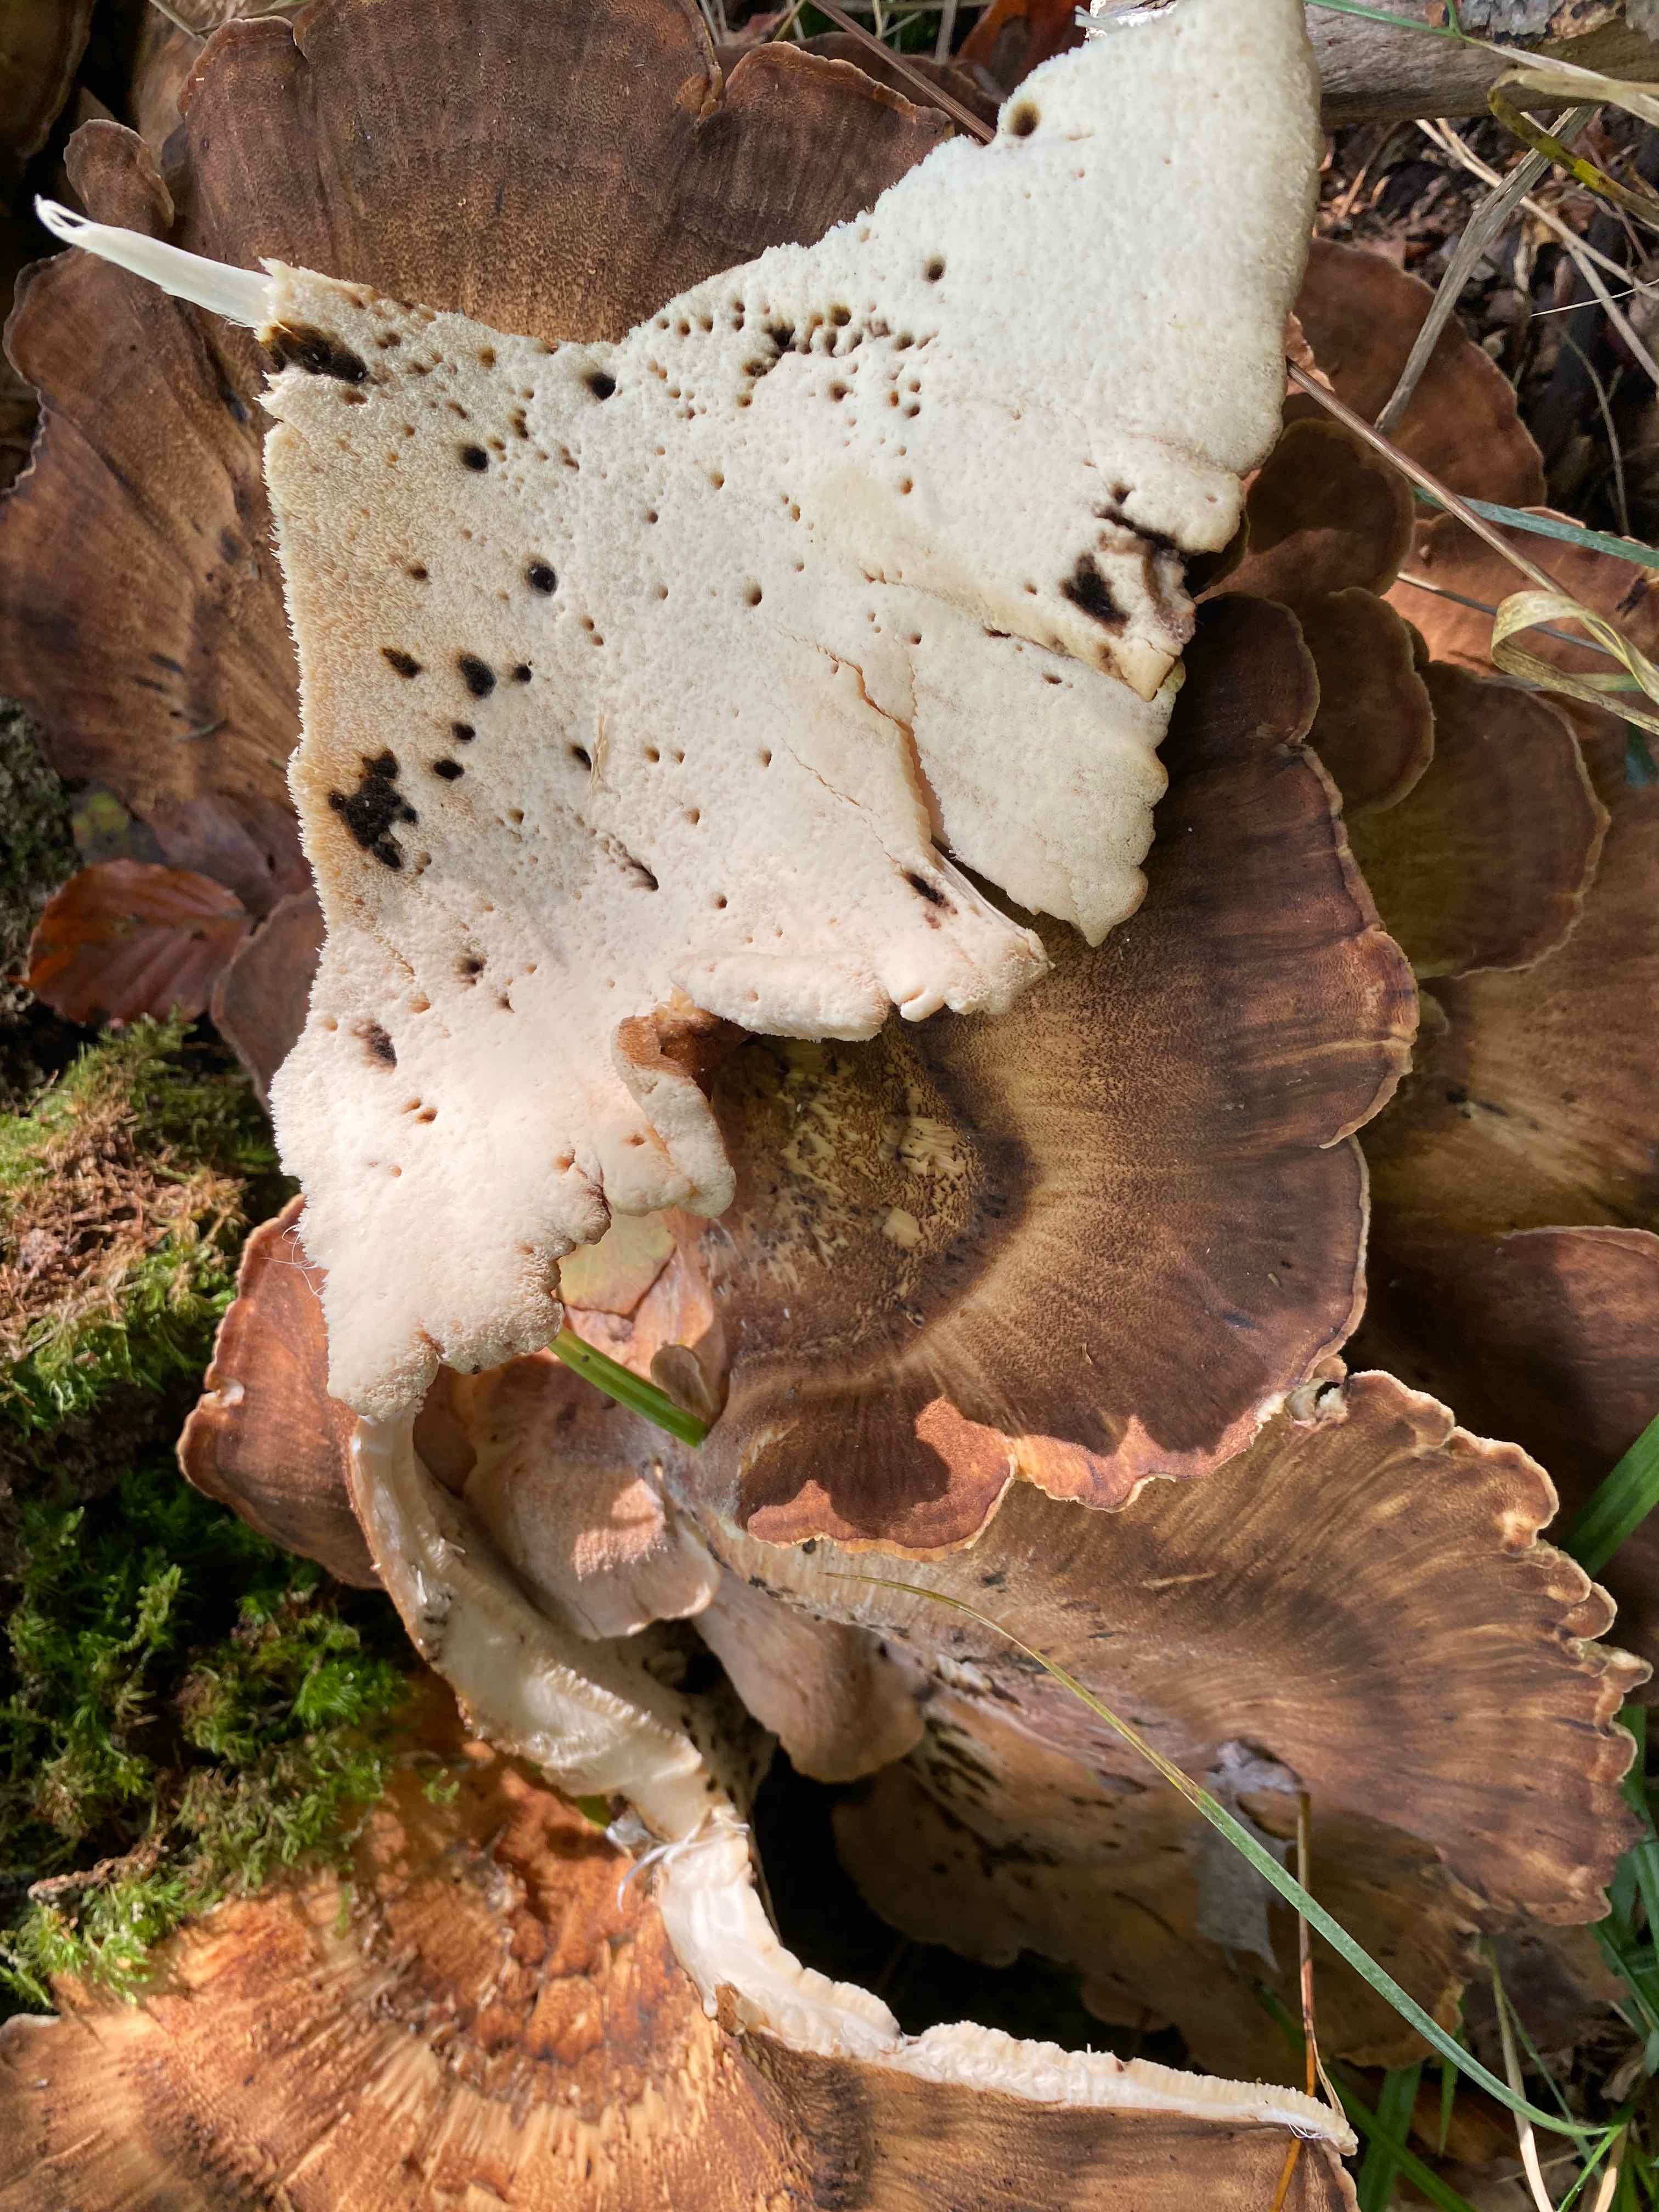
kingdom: Fungi
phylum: Basidiomycota
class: Agaricomycetes
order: Polyporales
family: Meripilaceae
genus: Meripilus
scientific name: Meripilus giganteus
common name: kæmpeporesvamp
